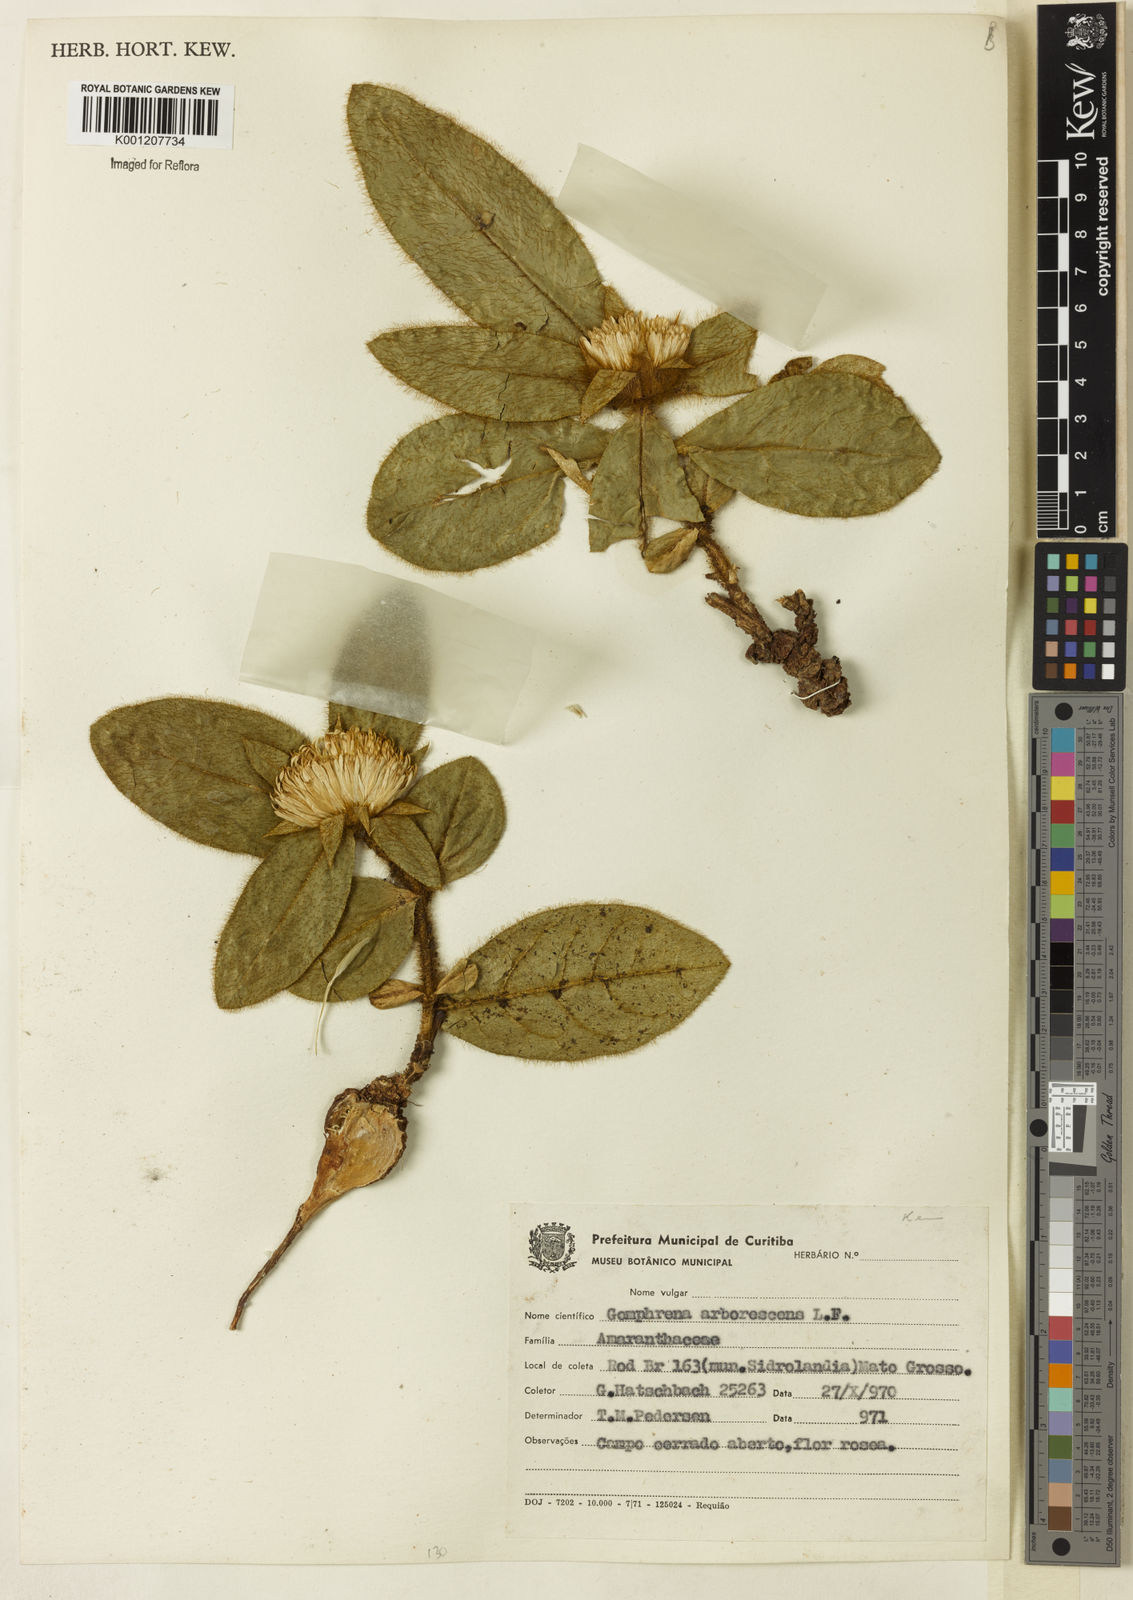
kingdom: Plantae
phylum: Tracheophyta
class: Magnoliopsida
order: Caryophyllales
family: Amaranthaceae
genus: Gomphrena
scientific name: Gomphrena arborescens
